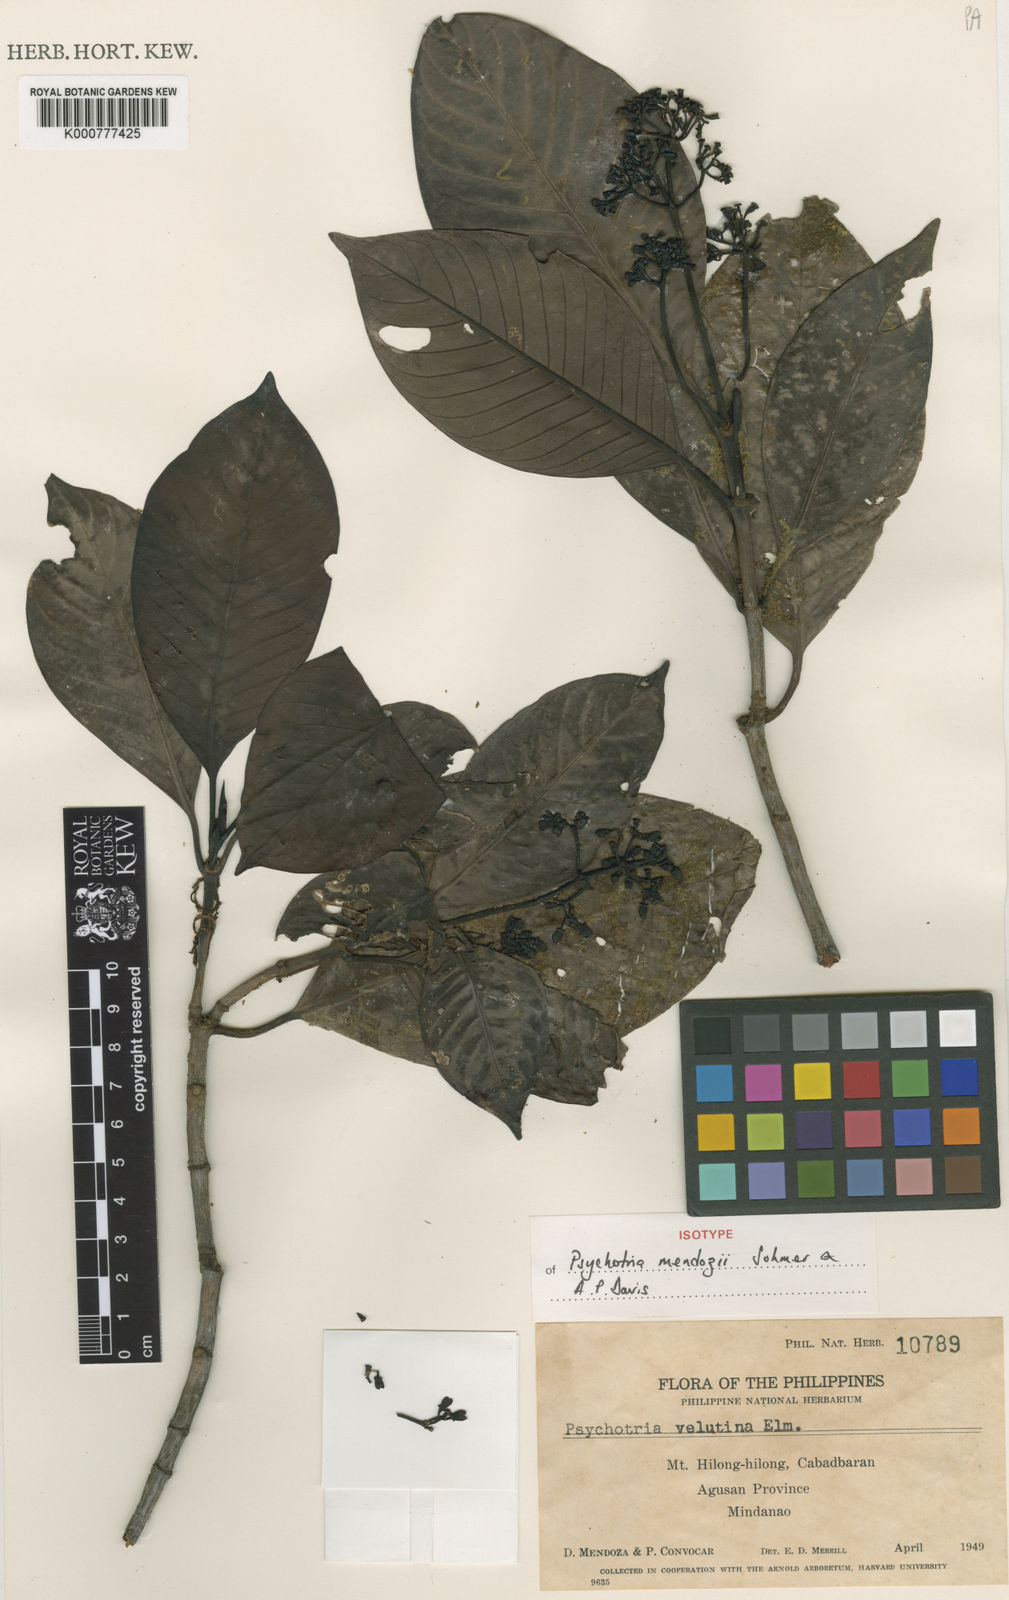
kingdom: Plantae
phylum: Tracheophyta
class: Magnoliopsida
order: Gentianales
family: Rubiaceae
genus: Psychotria
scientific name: Psychotria mendozii
